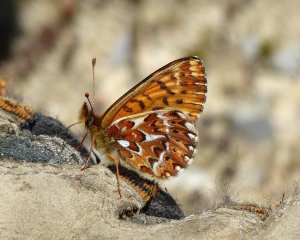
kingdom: Animalia
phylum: Arthropoda
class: Insecta
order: Lepidoptera
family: Nymphalidae
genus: Boloria
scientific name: Boloria freija
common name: Freija Fritillary
